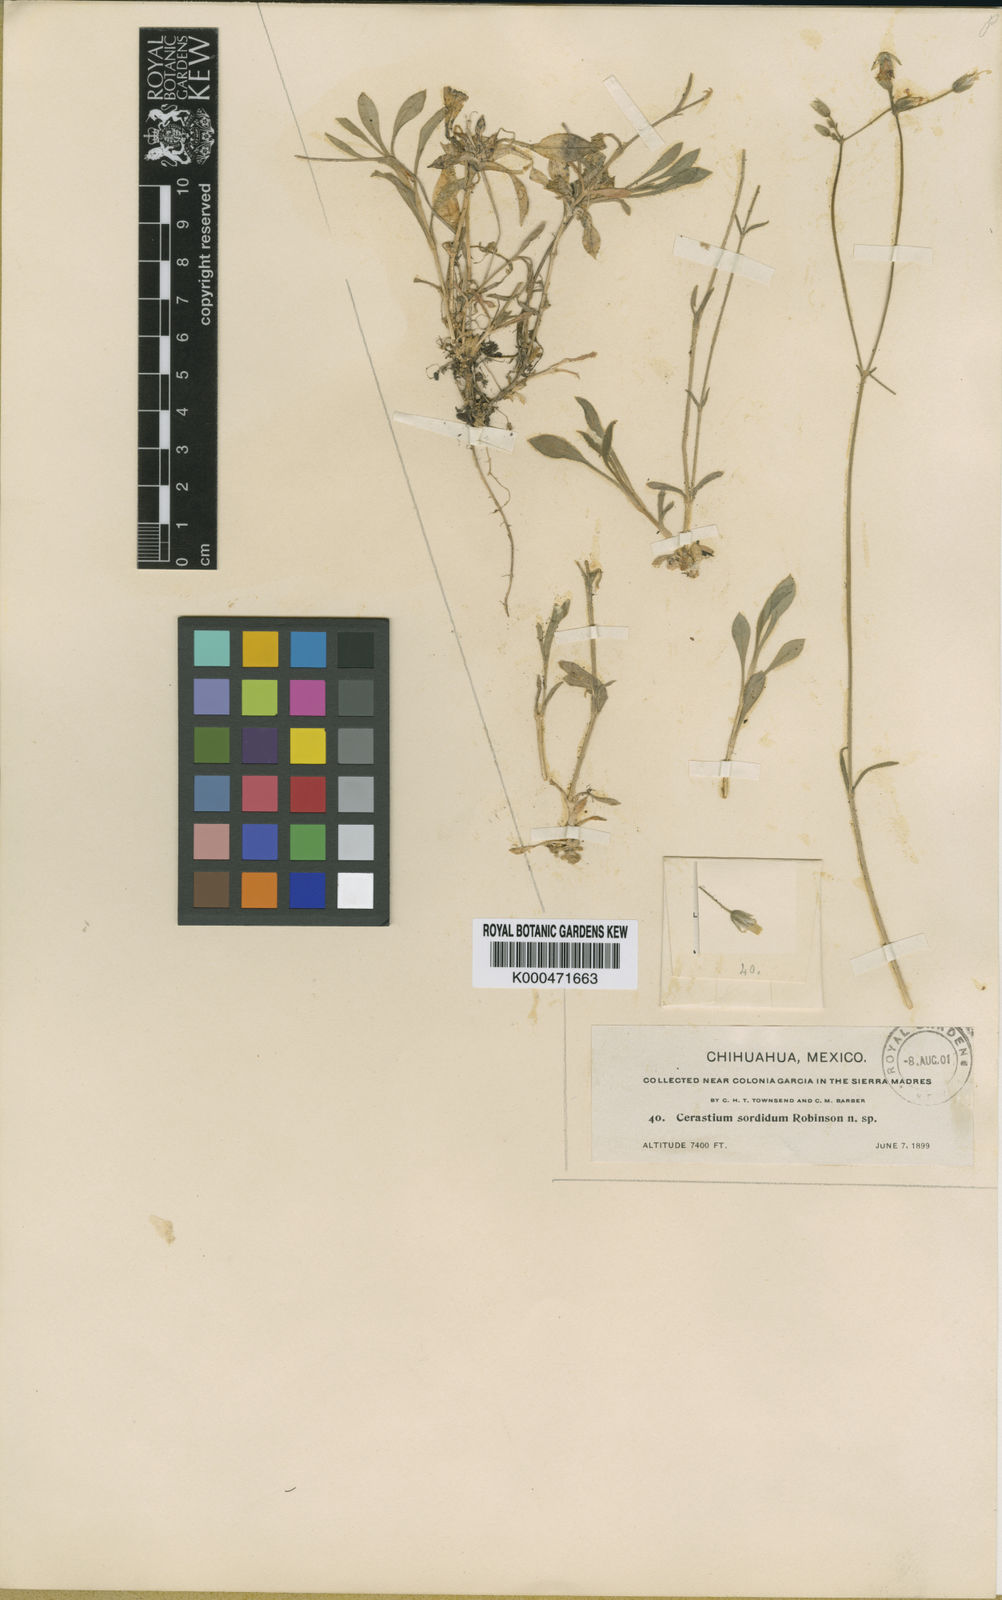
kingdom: Plantae
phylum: Tracheophyta
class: Magnoliopsida
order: Caryophyllales
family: Caryophyllaceae
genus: Cerastium
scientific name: Cerastium sordidum
